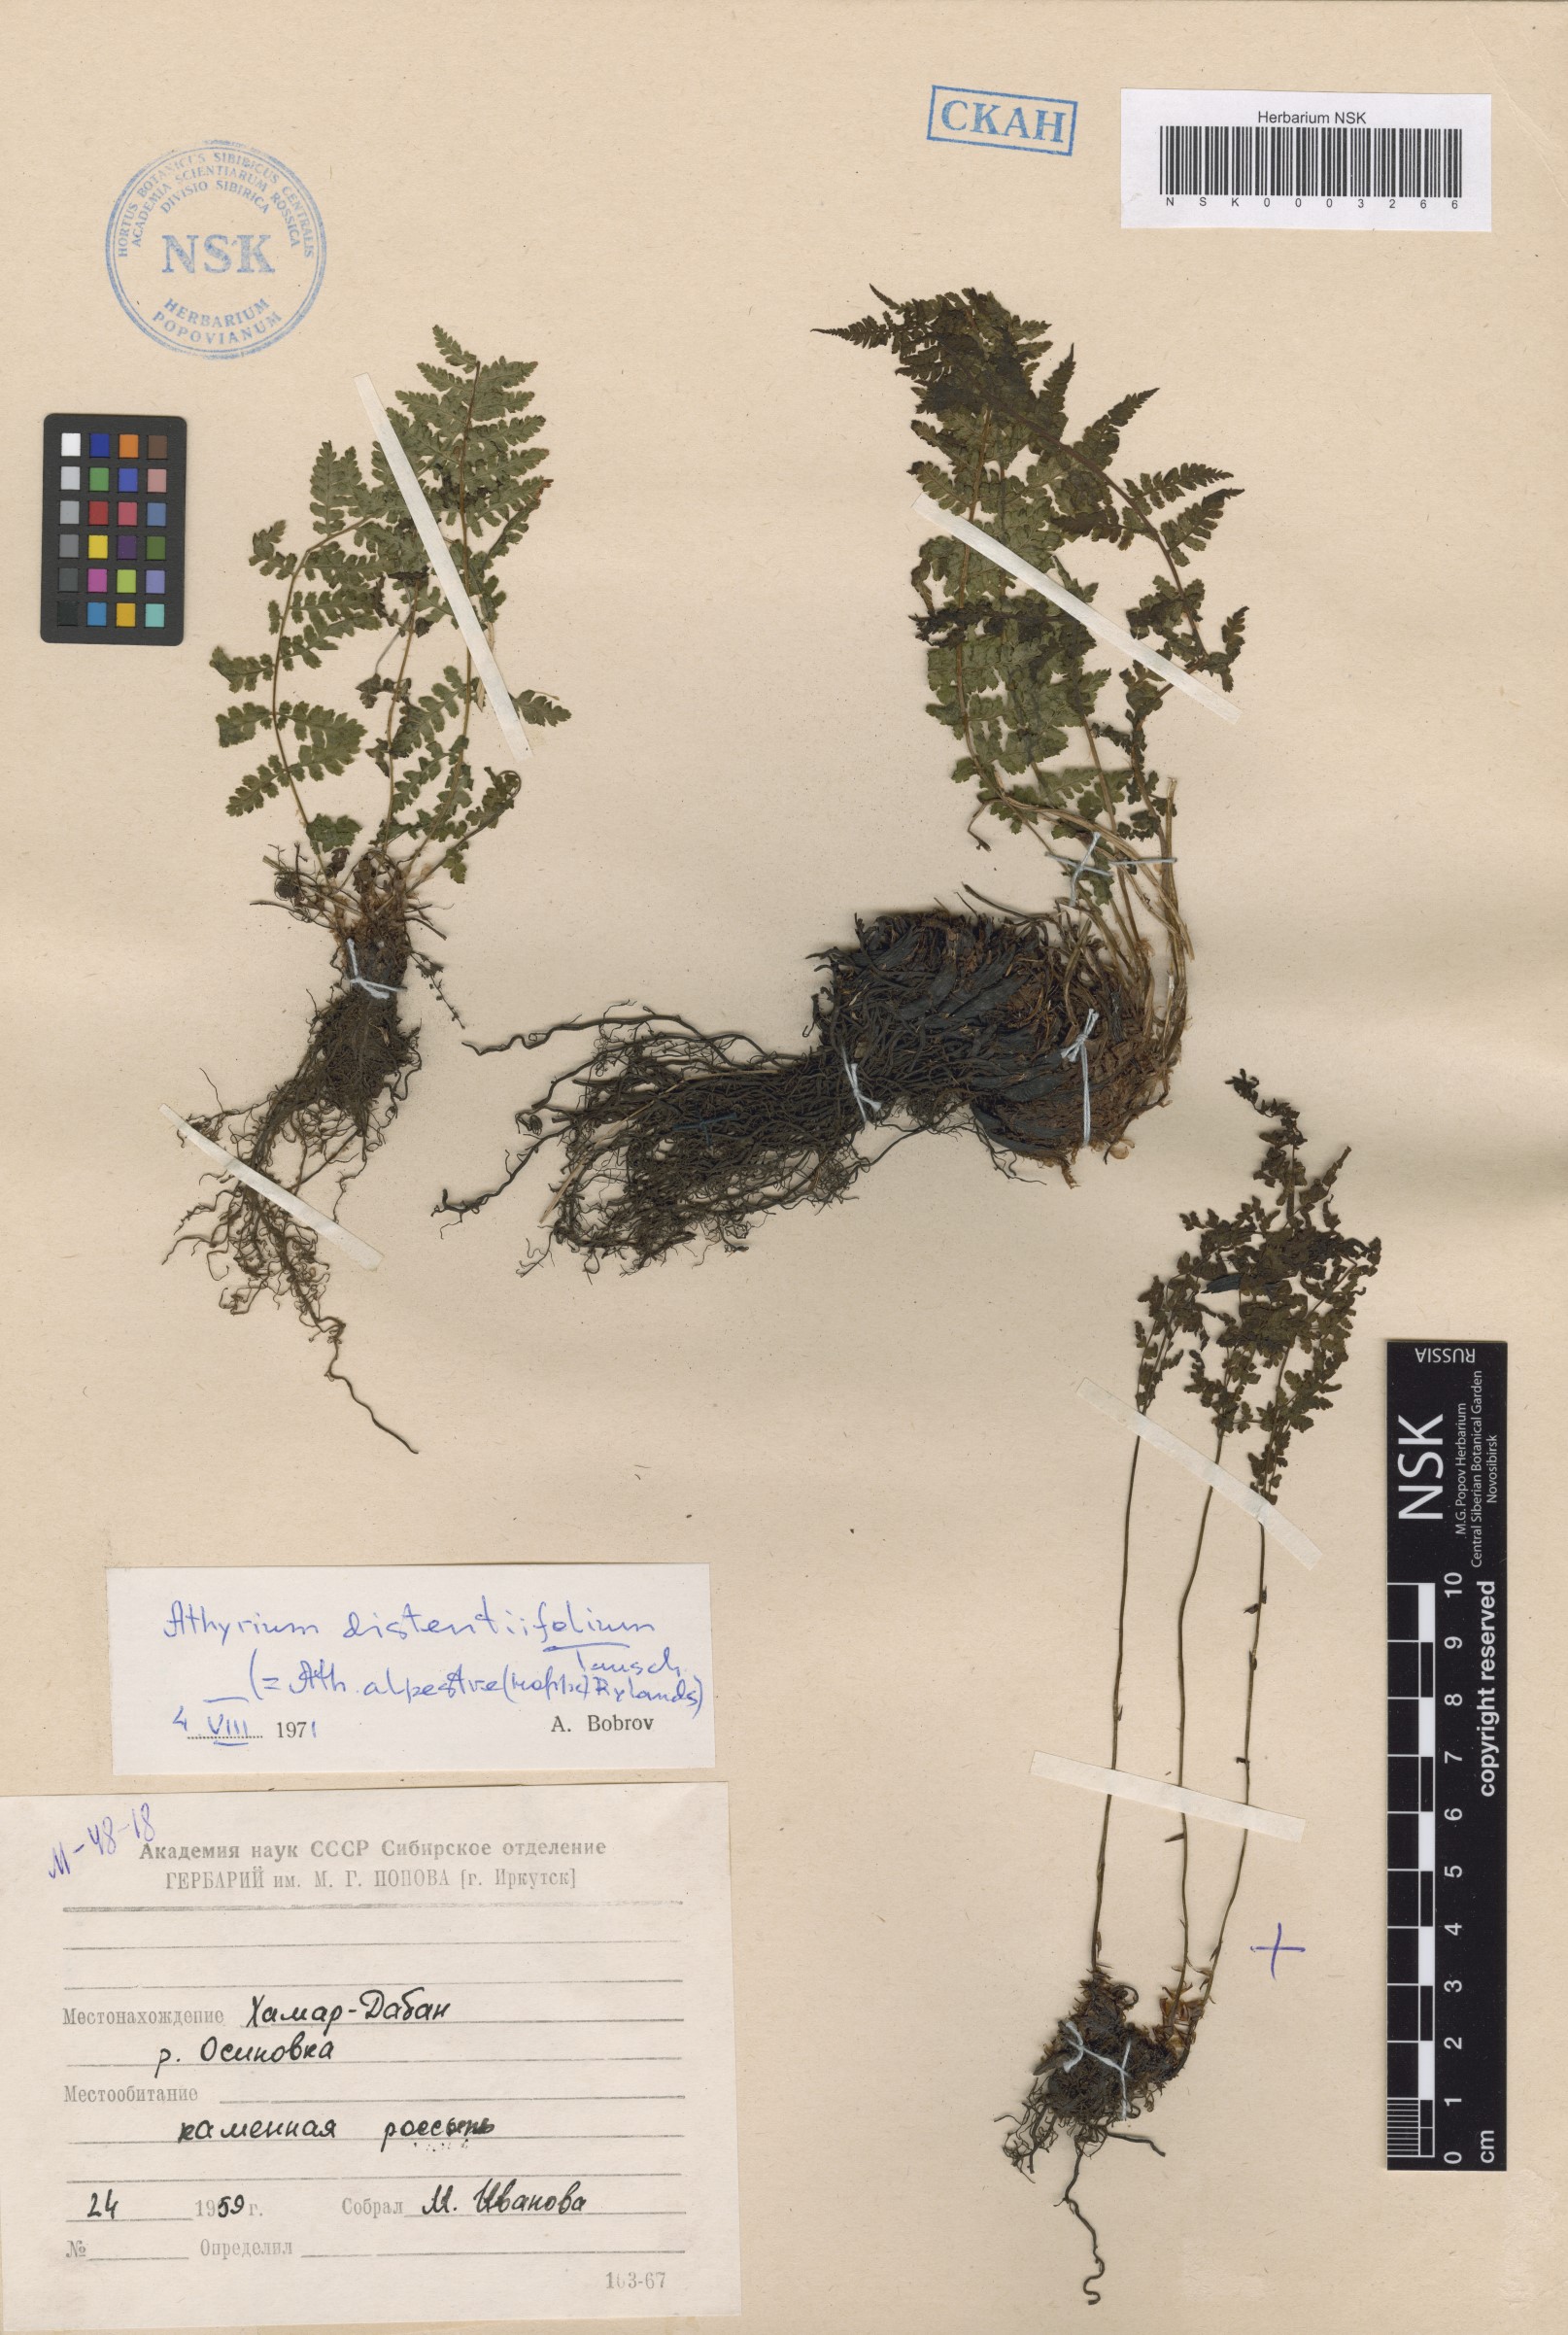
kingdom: Plantae
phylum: Tracheophyta
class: Polypodiopsida
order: Polypodiales
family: Athyriaceae
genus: Pseudathyrium
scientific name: Pseudathyrium alpestre
